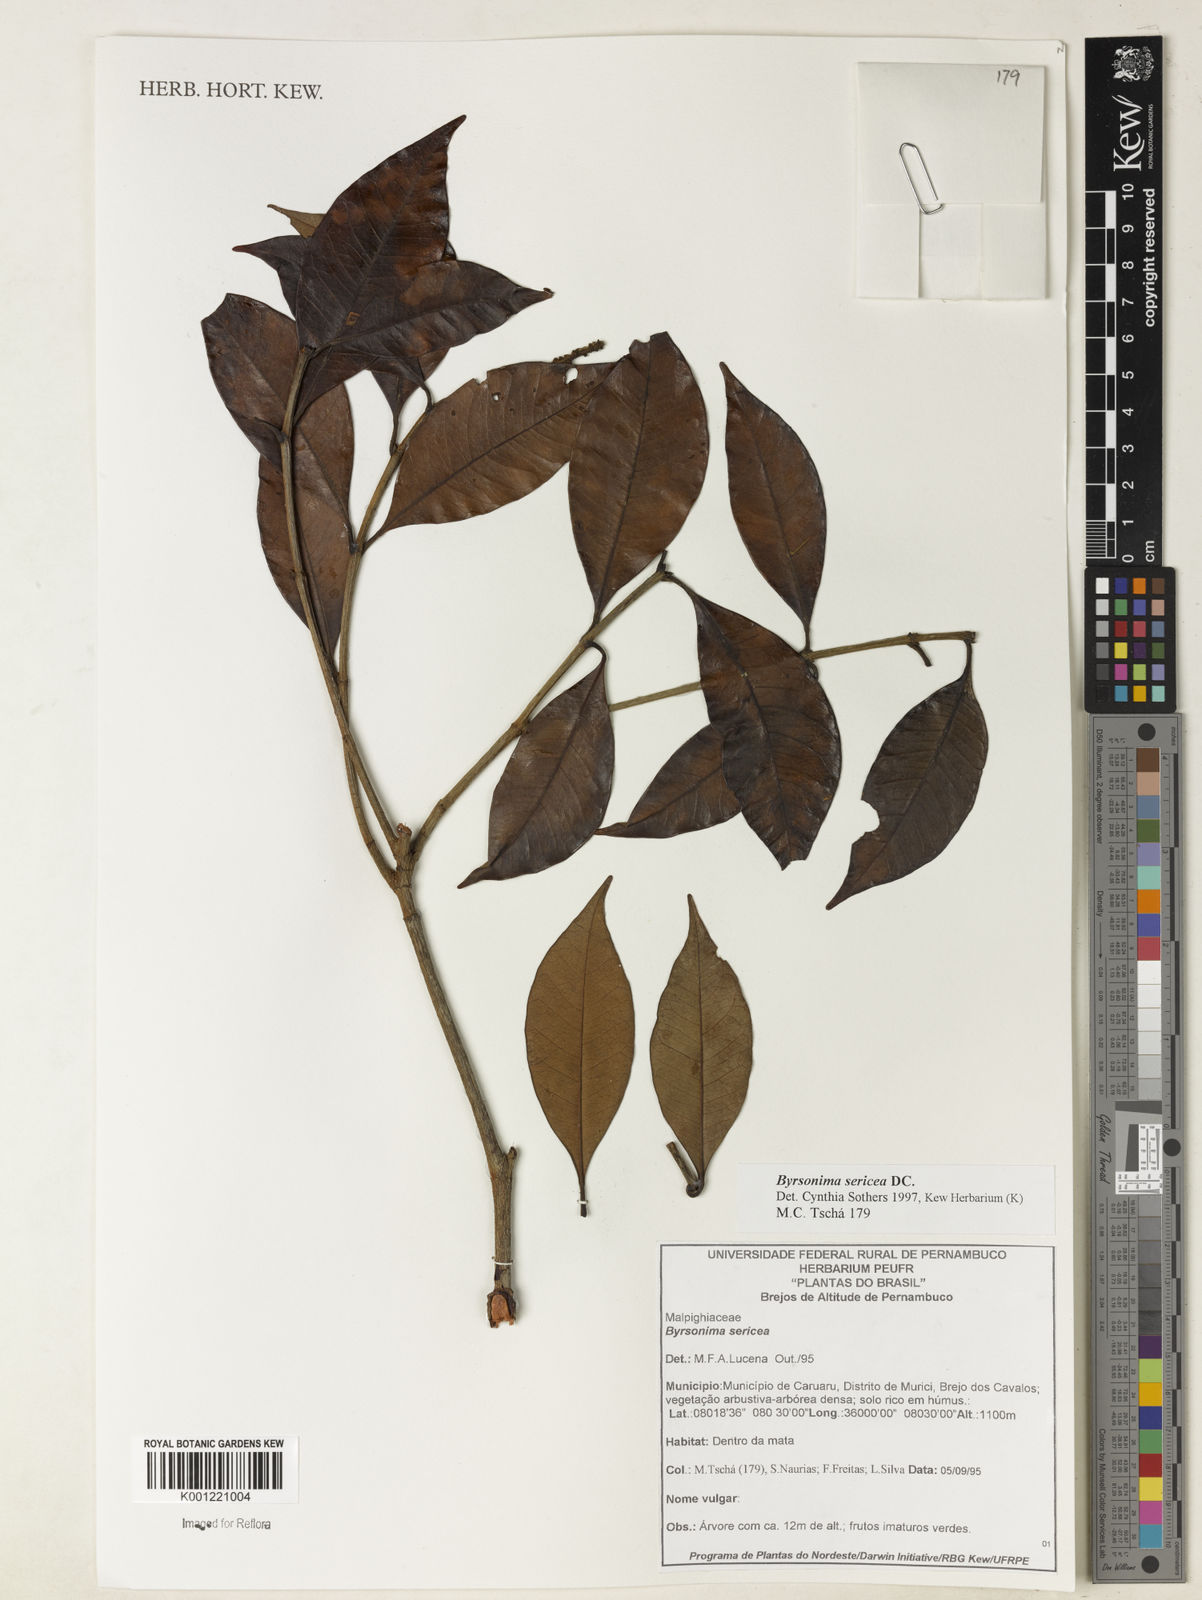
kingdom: Plantae
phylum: Tracheophyta
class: Magnoliopsida
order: Malpighiales
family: Malpighiaceae
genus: Byrsonima
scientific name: Byrsonima sericea
